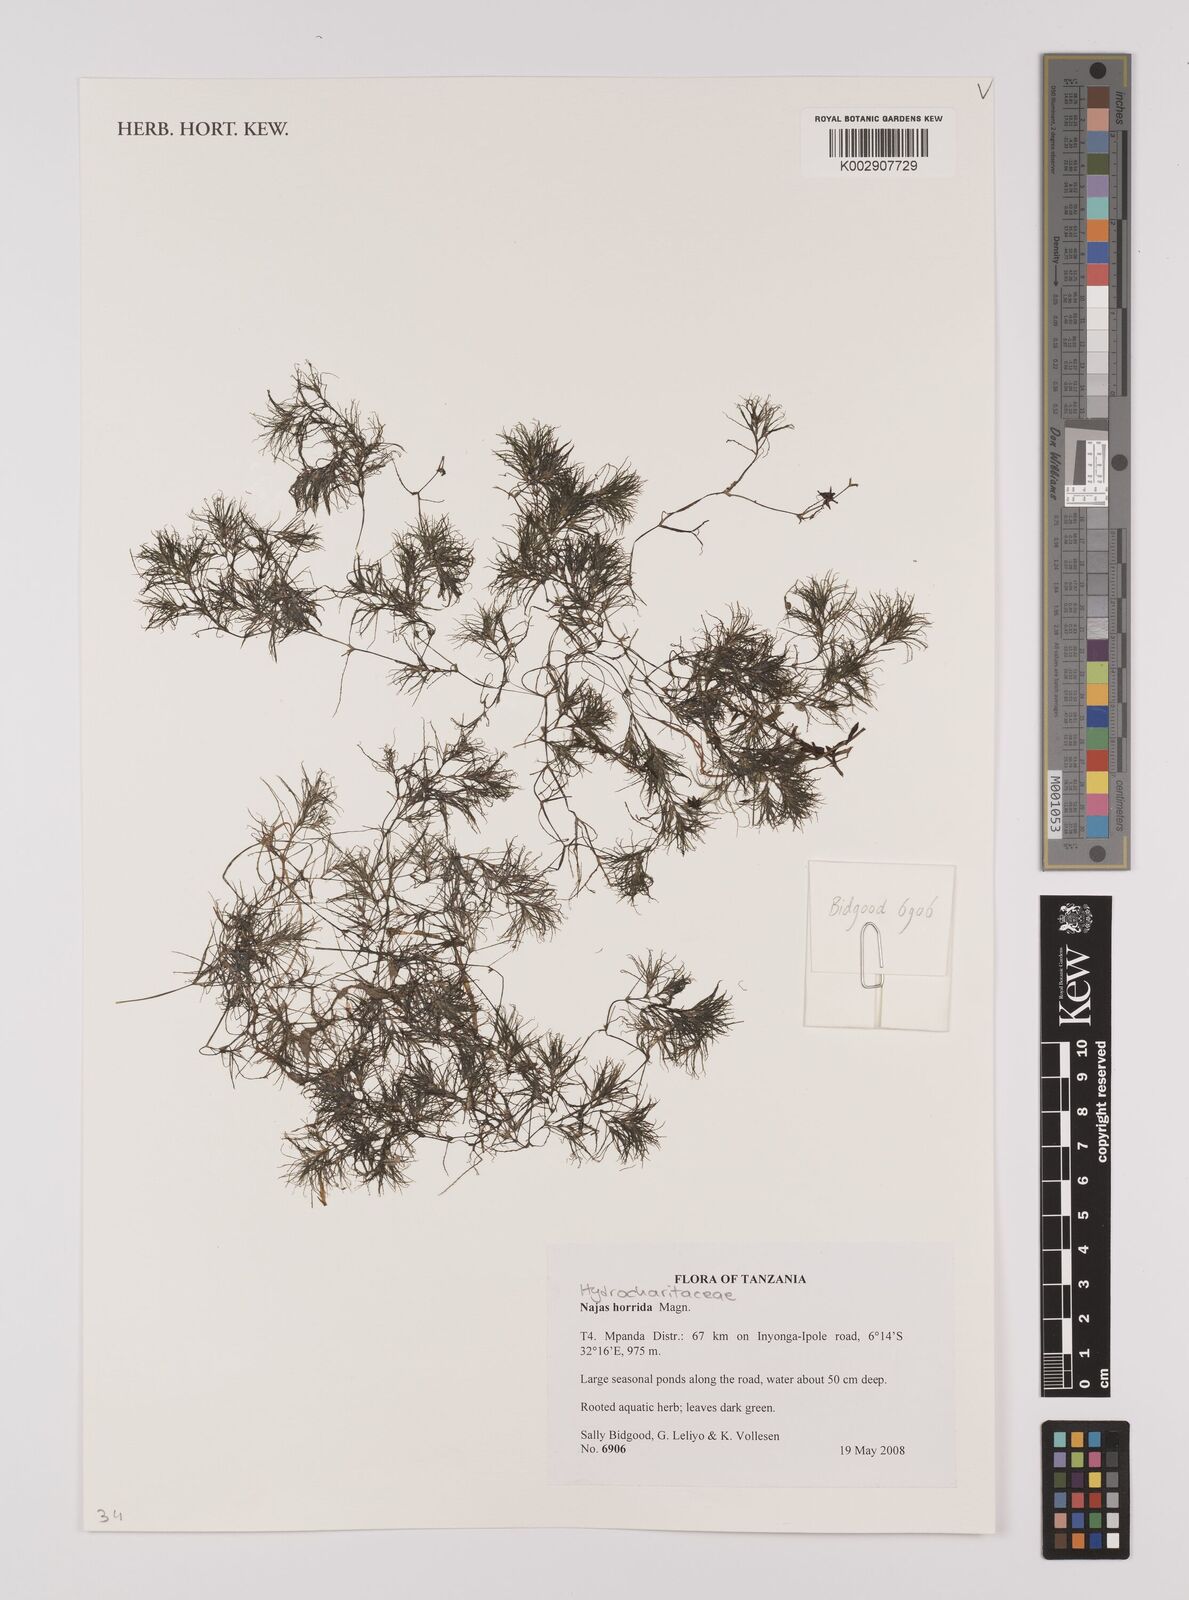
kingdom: Plantae
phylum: Tracheophyta
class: Liliopsida
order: Alismatales
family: Hydrocharitaceae
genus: Najas
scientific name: Najas horrida
